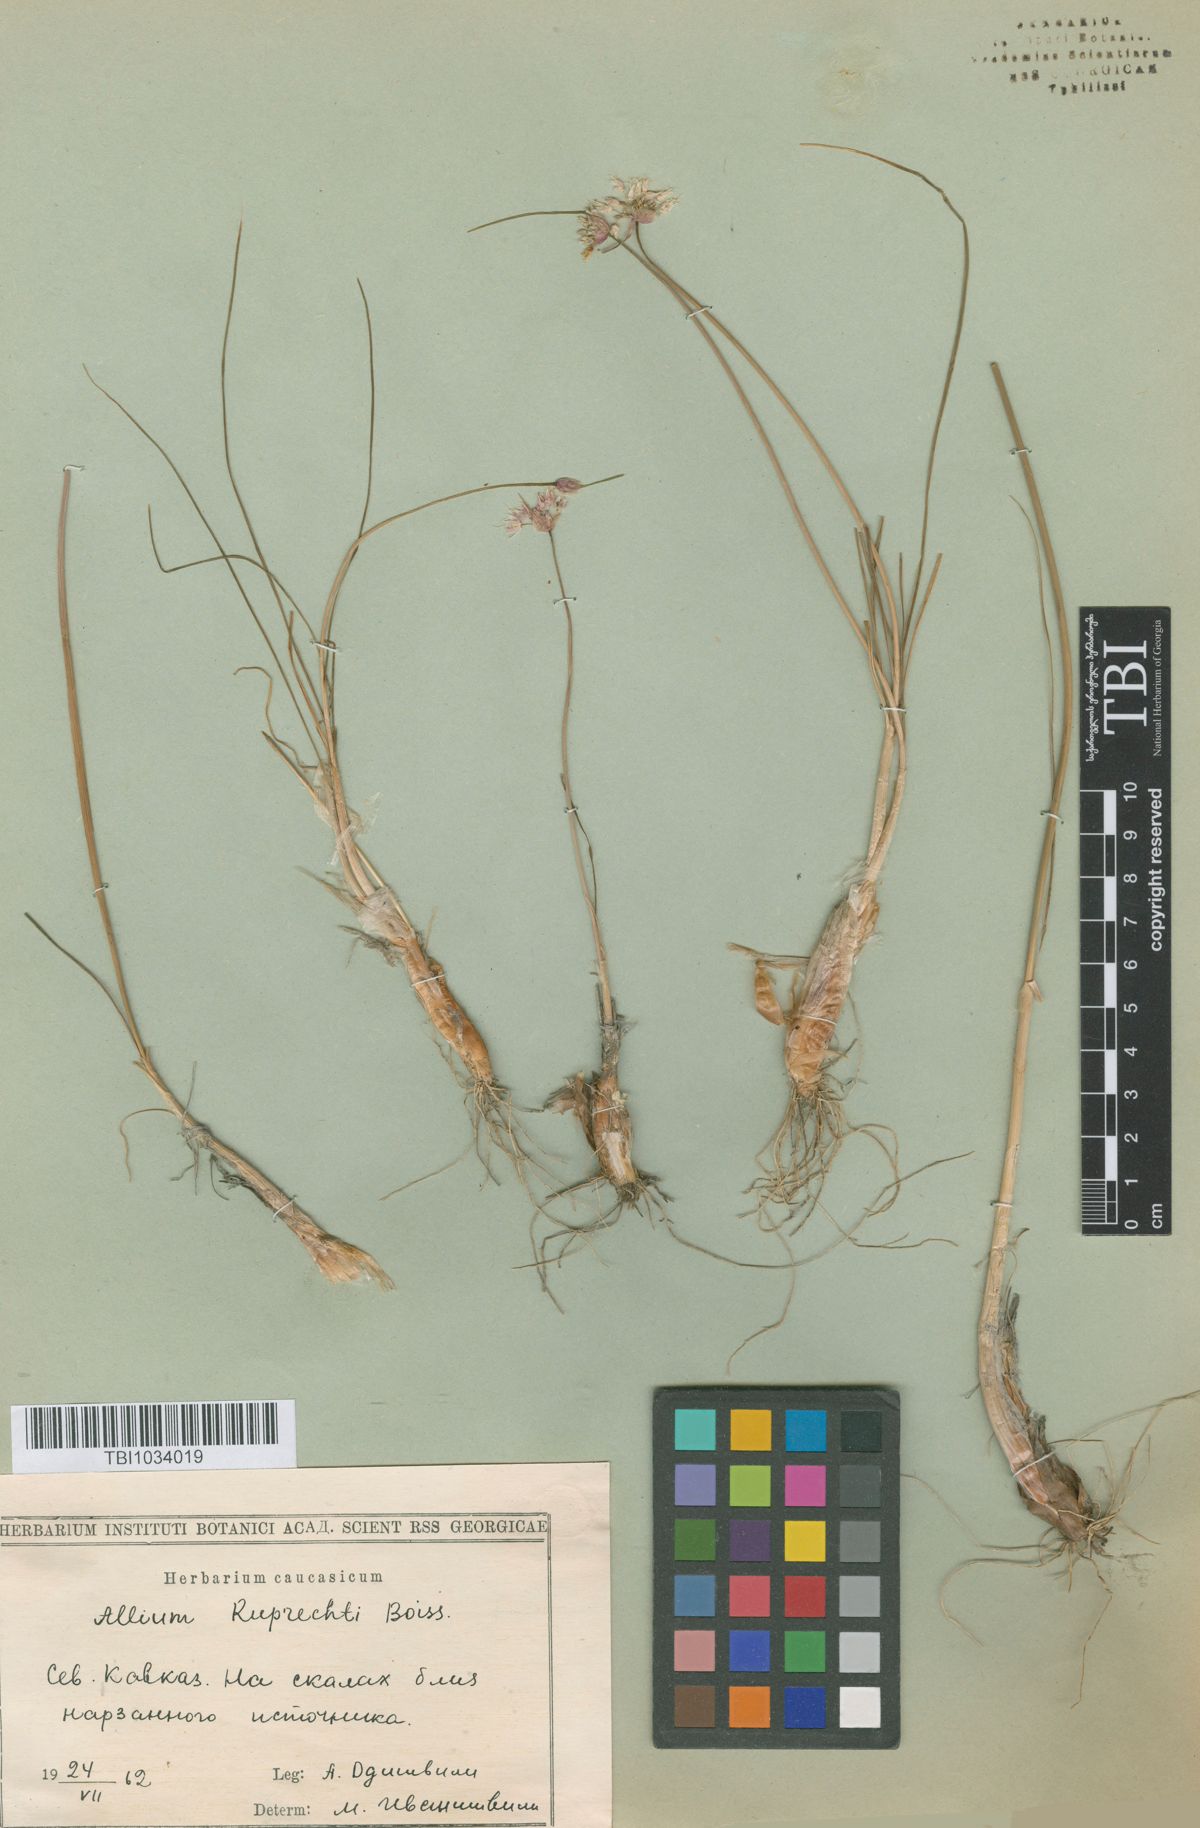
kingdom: Plantae
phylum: Tracheophyta
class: Liliopsida
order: Asparagales
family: Amaryllidaceae
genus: Allium
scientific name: Allium saxatile
